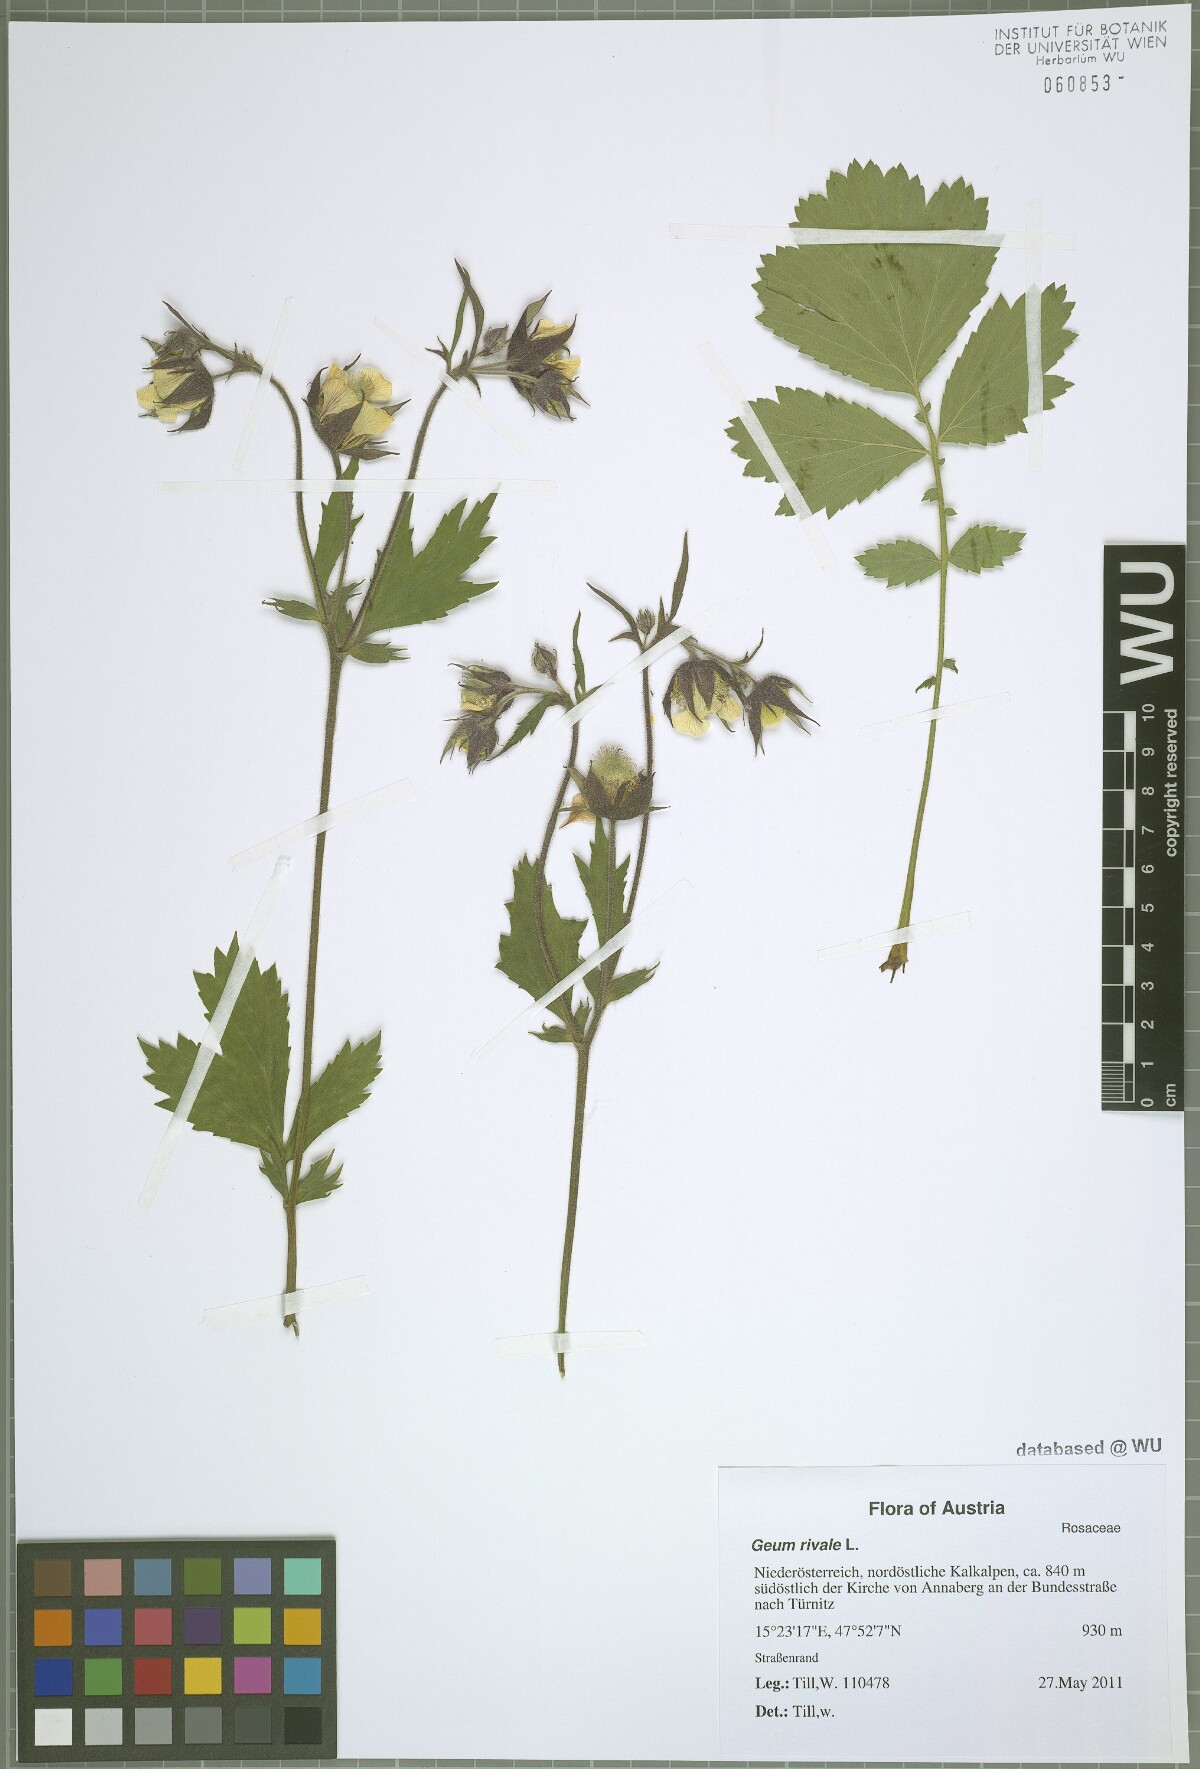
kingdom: Plantae
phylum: Tracheophyta
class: Magnoliopsida
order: Rosales
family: Rosaceae
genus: Geum
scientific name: Geum rivale
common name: Water avens
